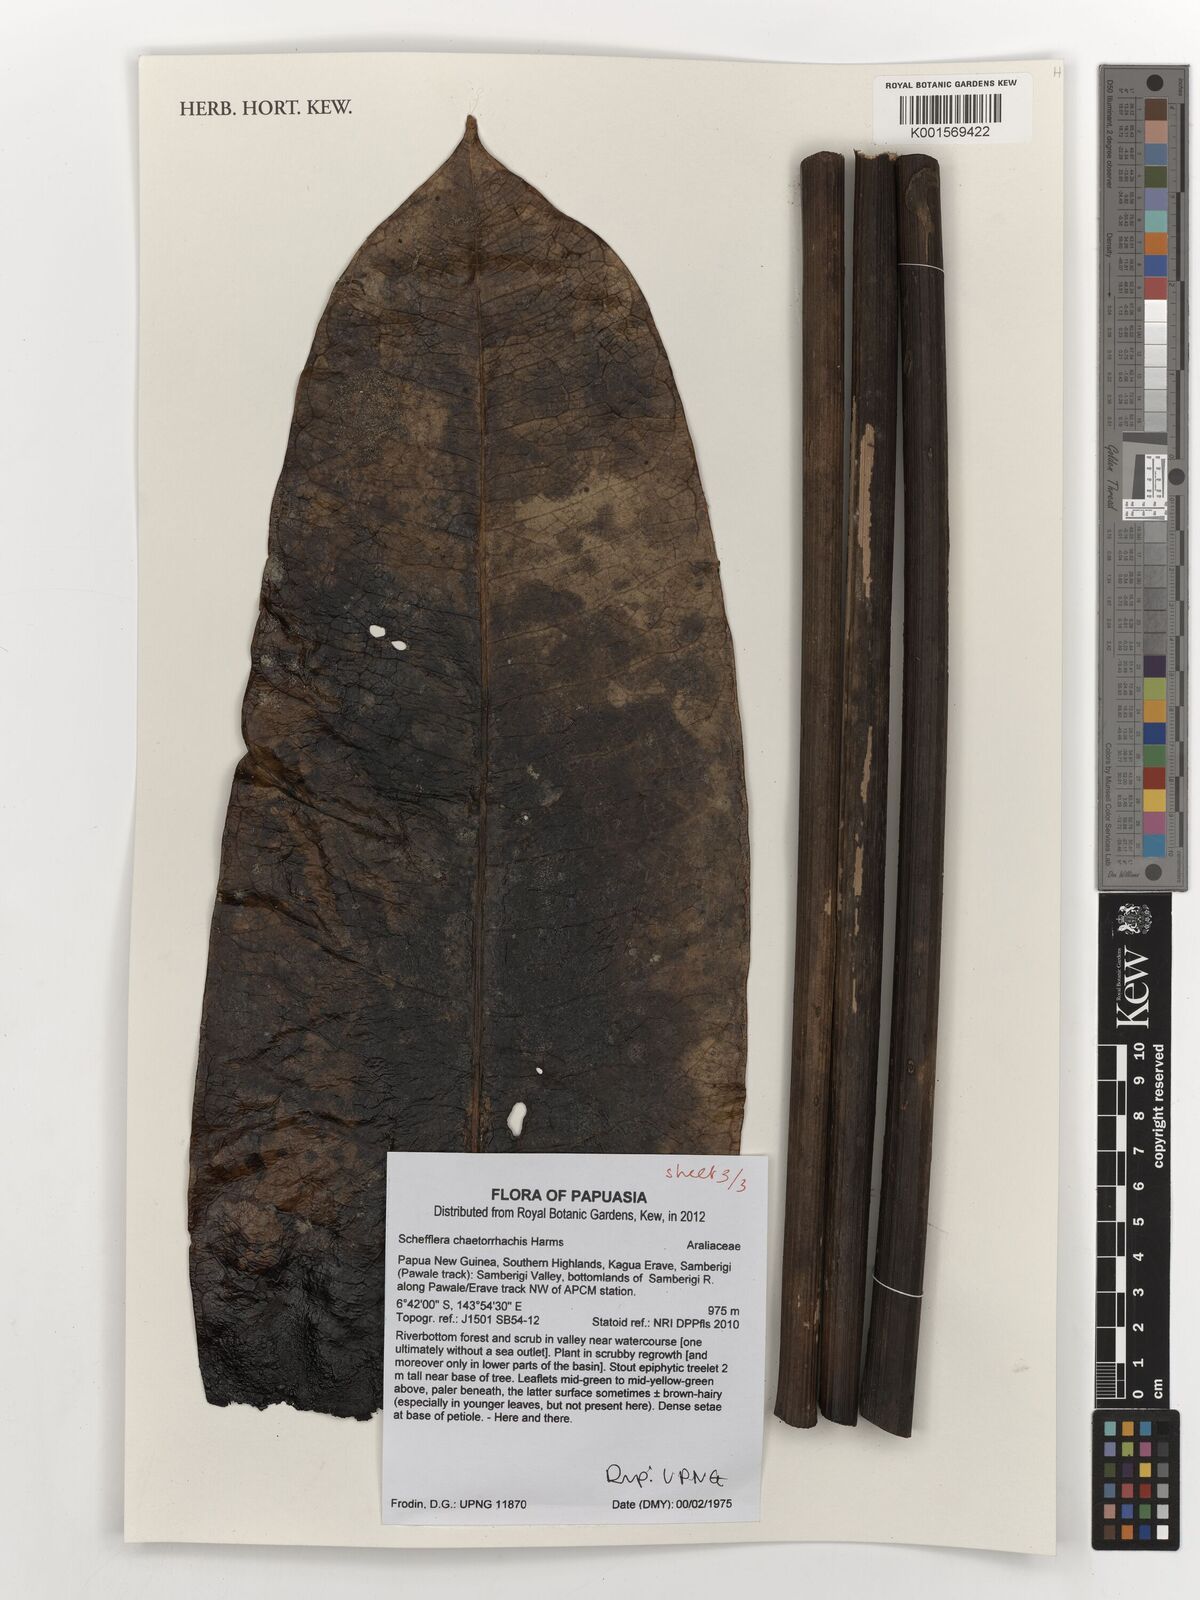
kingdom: Plantae
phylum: Tracheophyta
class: Magnoliopsida
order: Apiales
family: Araliaceae
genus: Heptapleurum
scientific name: Heptapleurum chaetorrhachis
